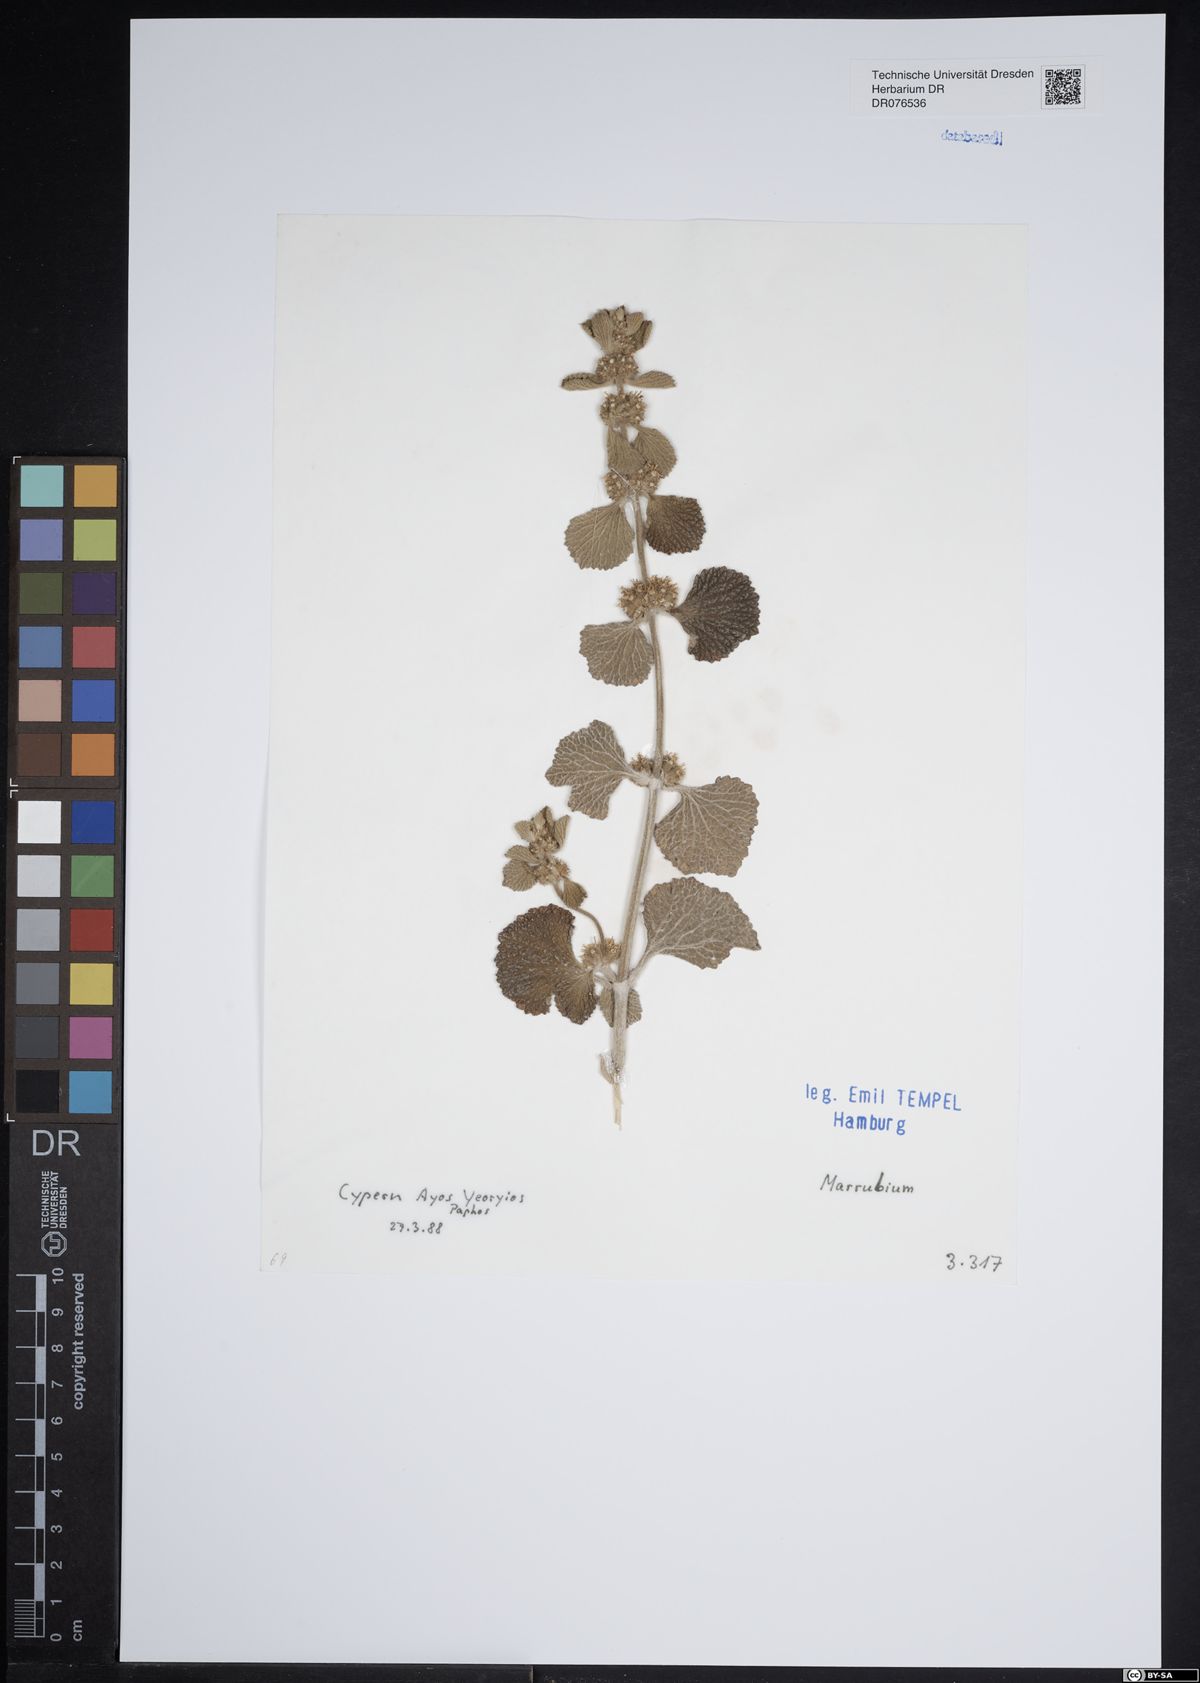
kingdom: Plantae
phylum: Tracheophyta
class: Magnoliopsida
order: Lamiales
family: Lamiaceae
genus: Marrubium
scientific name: Marrubium
